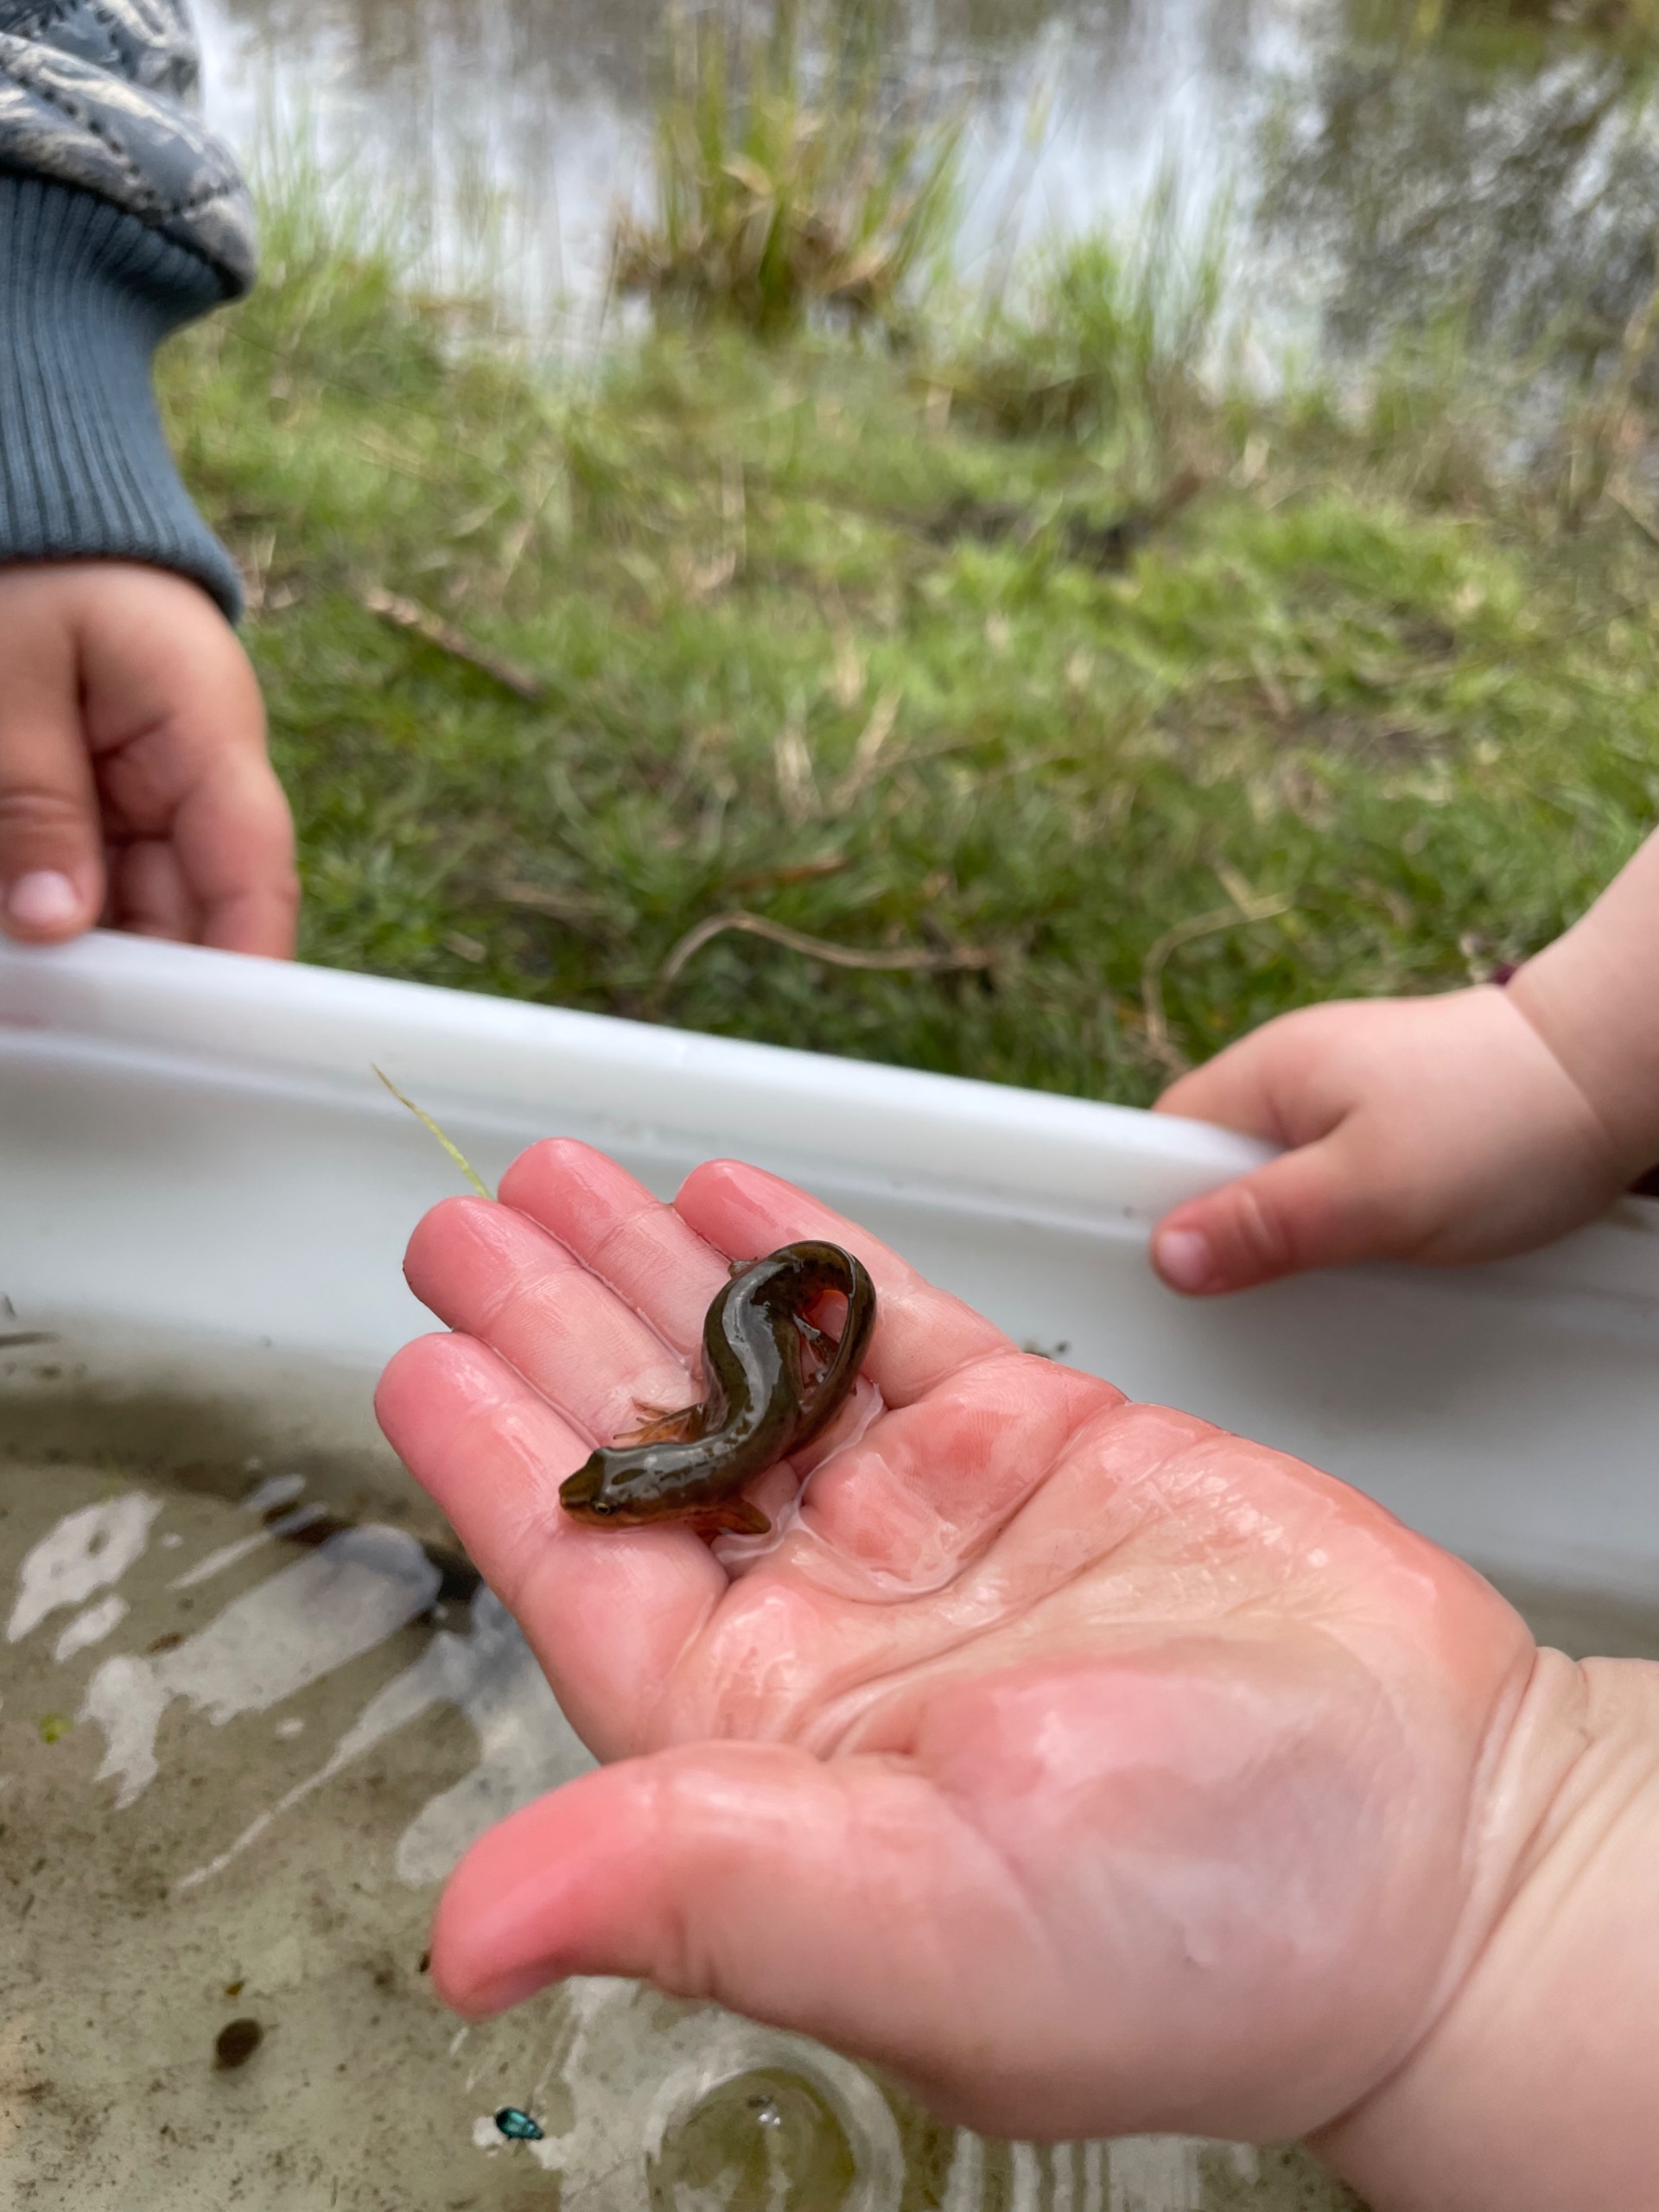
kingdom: Animalia
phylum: Chordata
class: Amphibia
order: Caudata
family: Salamandridae
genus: Lissotriton
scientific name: Lissotriton vulgaris
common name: Lille vandsalamander
